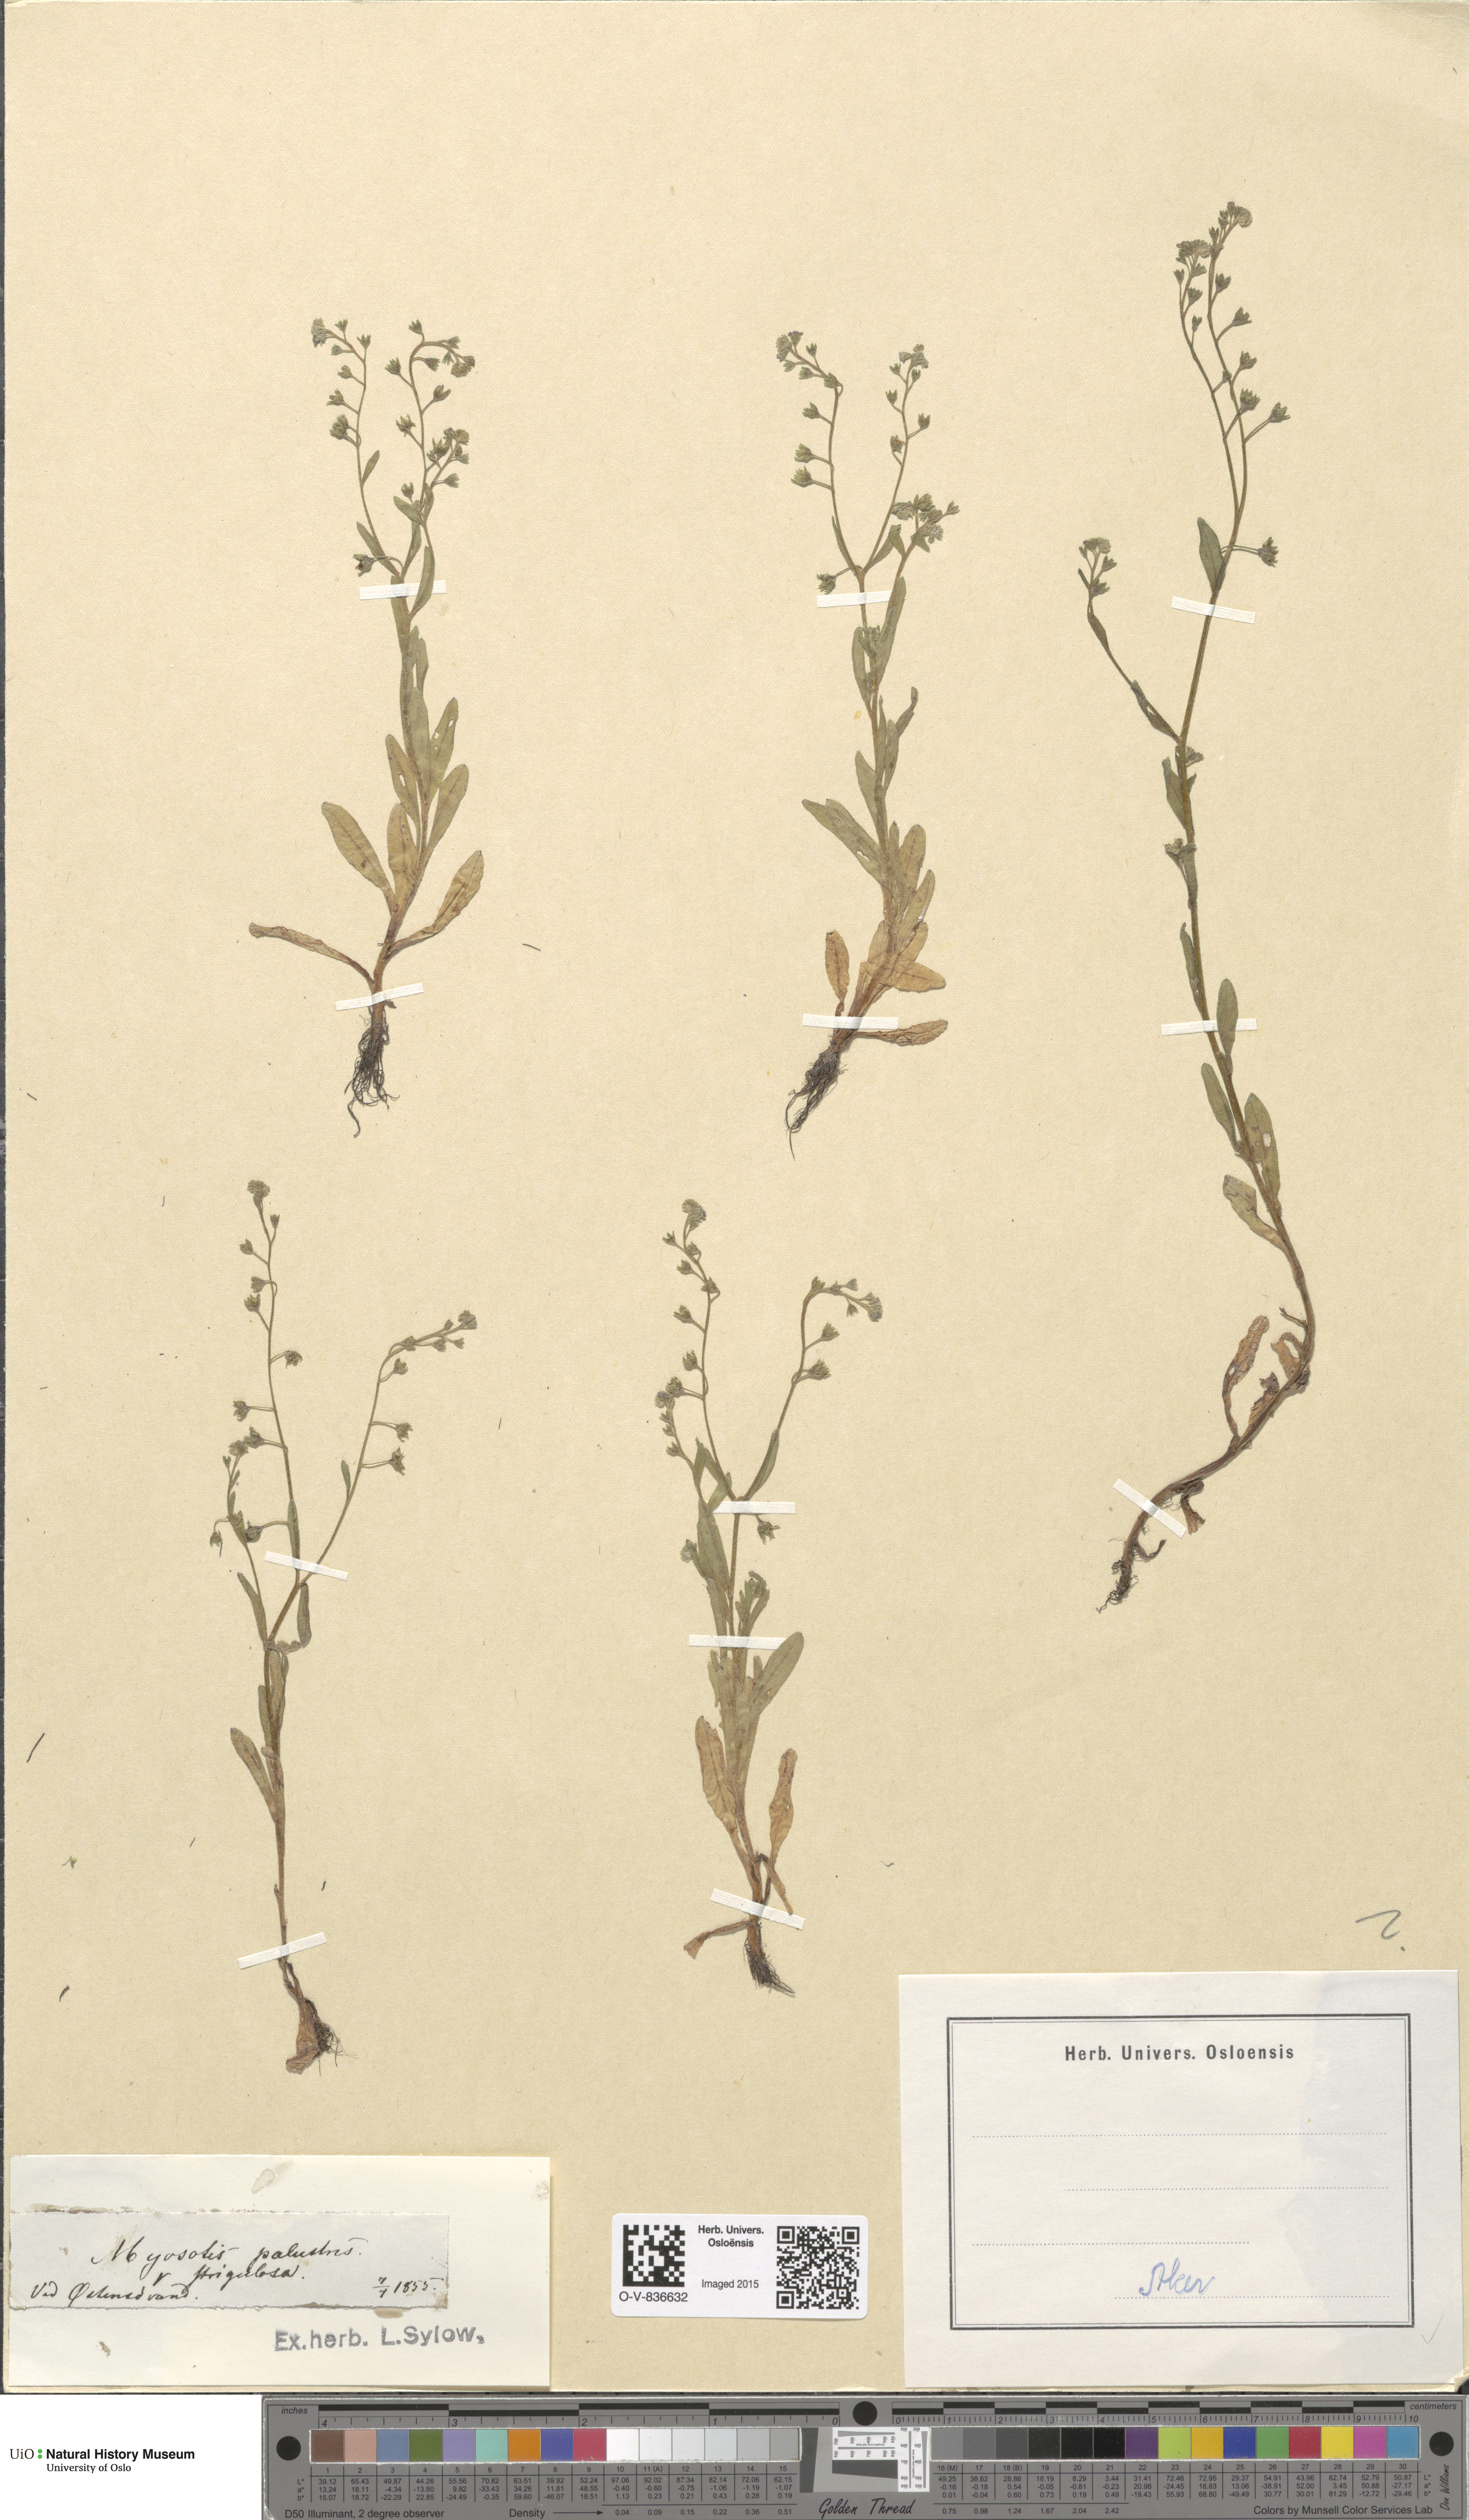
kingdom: Plantae
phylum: Tracheophyta
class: Magnoliopsida
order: Boraginales
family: Boraginaceae
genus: Myosotis
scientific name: Myosotis scorpioides
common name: Water forget-me-not
